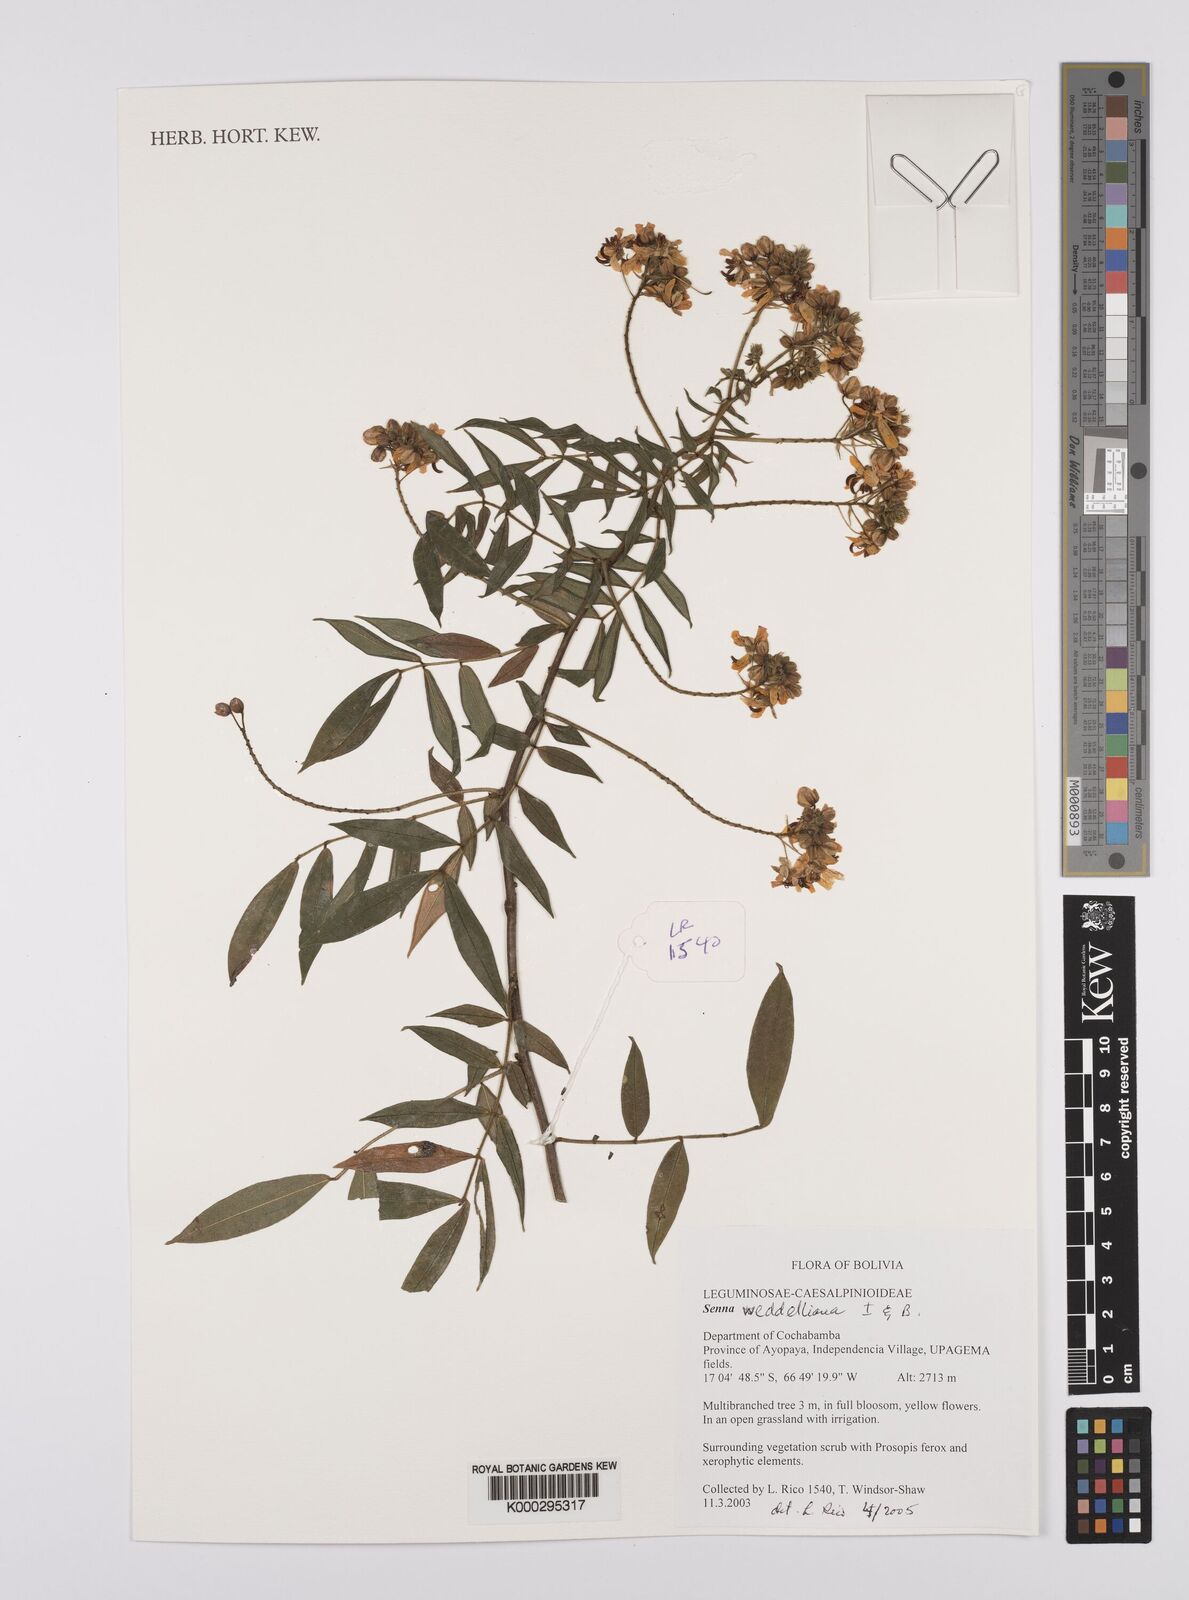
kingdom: Plantae
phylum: Tracheophyta
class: Magnoliopsida
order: Fabales
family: Fabaceae
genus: Senna
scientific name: Senna
